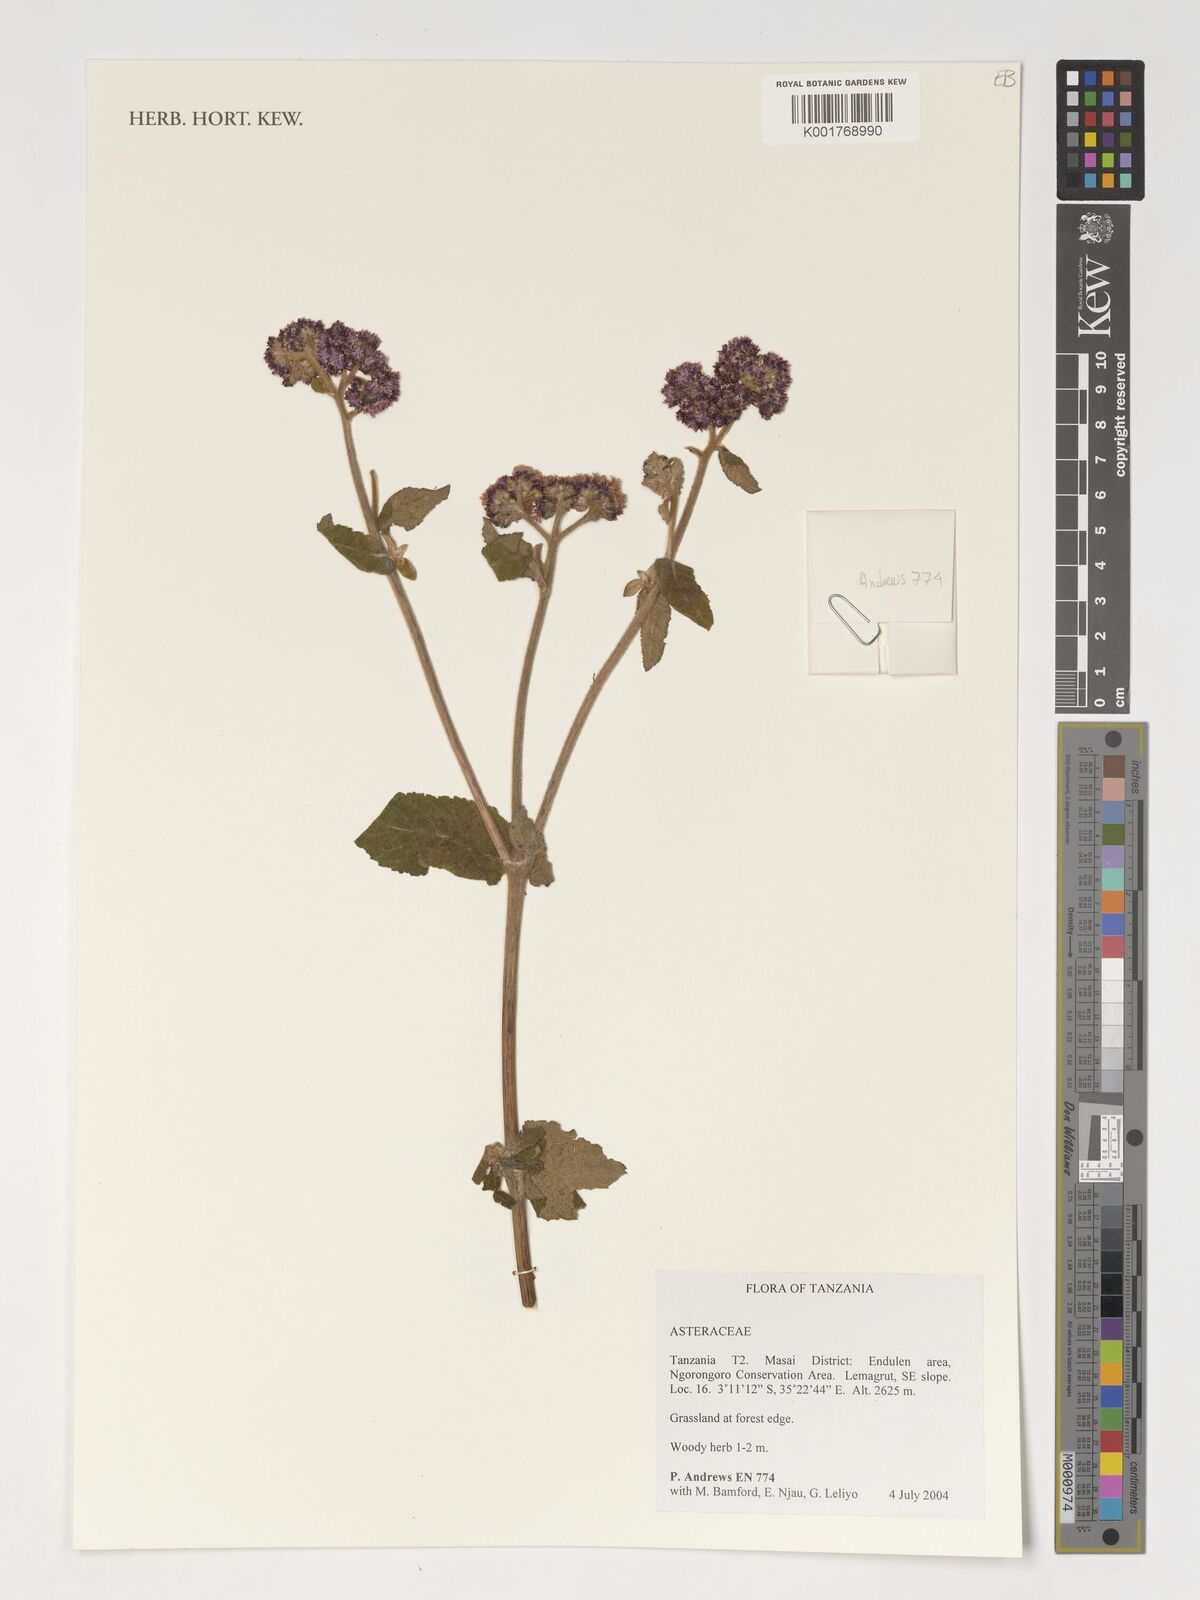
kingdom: Plantae
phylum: Tracheophyta
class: Magnoliopsida
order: Asterales
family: Asteraceae
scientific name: Asteraceae
